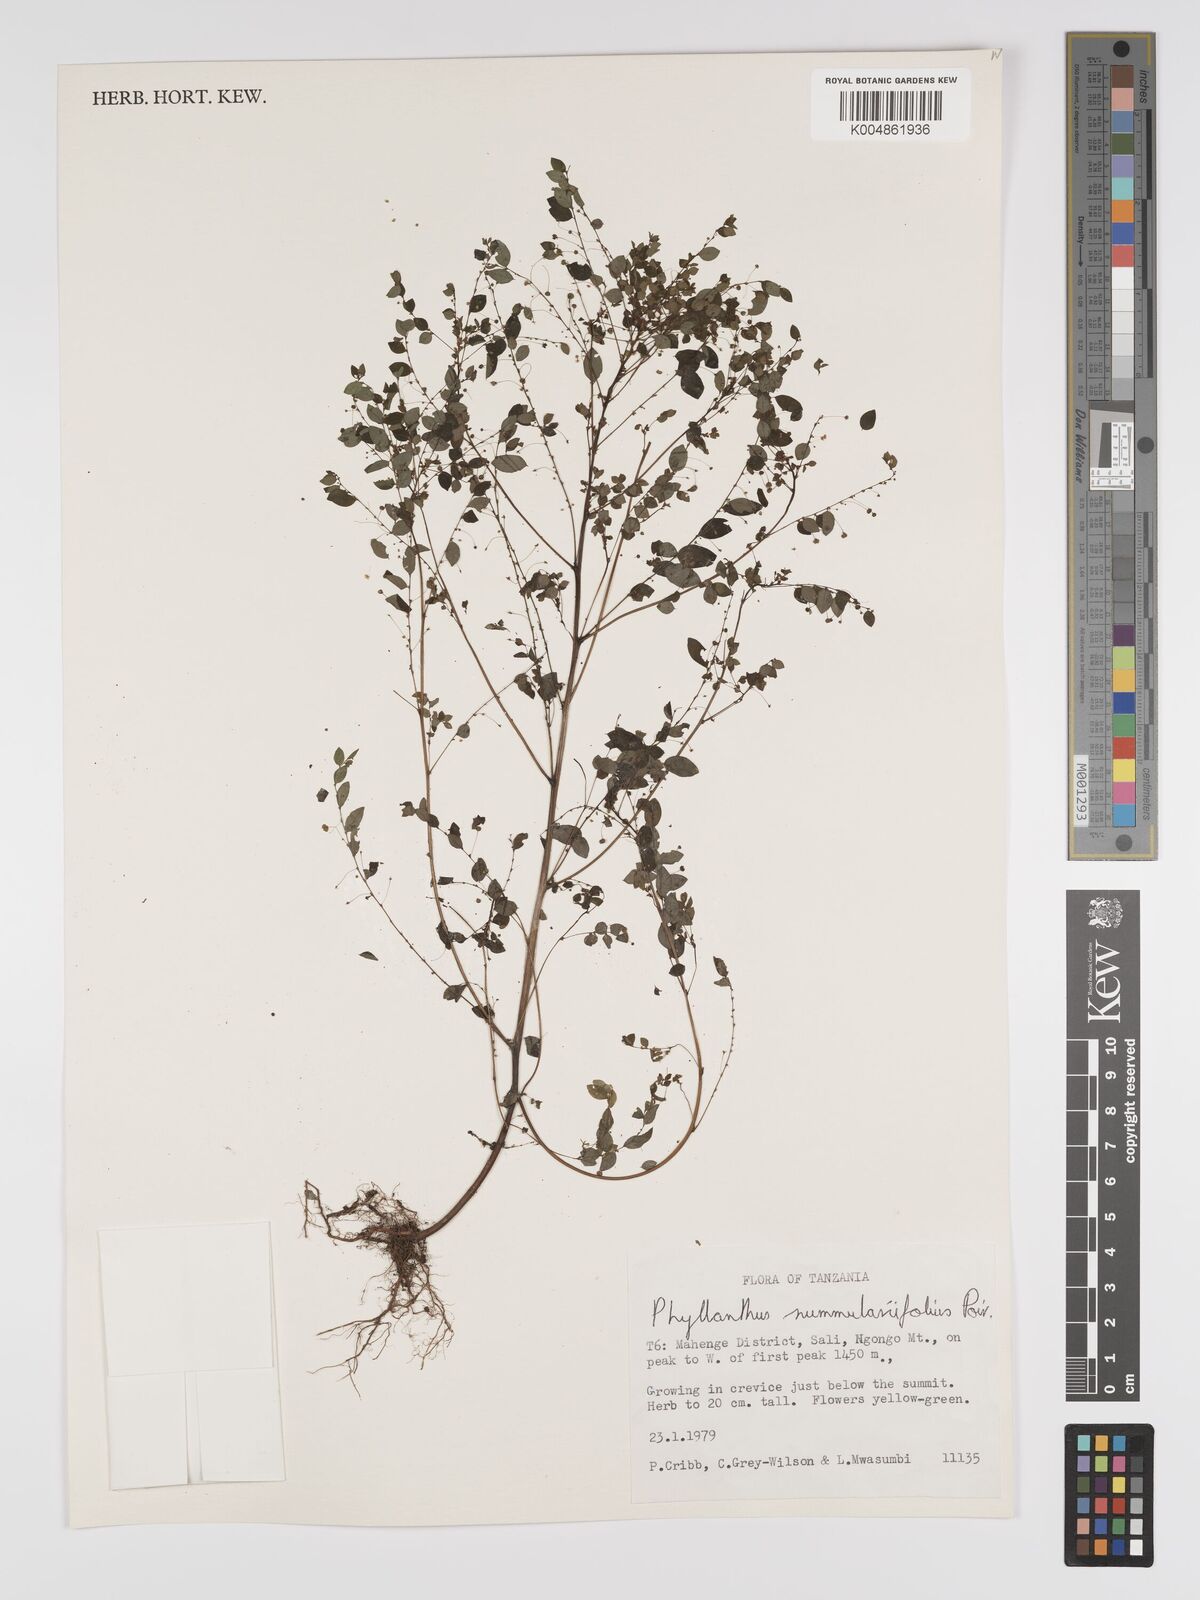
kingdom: Plantae
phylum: Tracheophyta
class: Magnoliopsida
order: Malpighiales
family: Phyllanthaceae
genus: Phyllanthus
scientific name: Phyllanthus nummulariifolius
